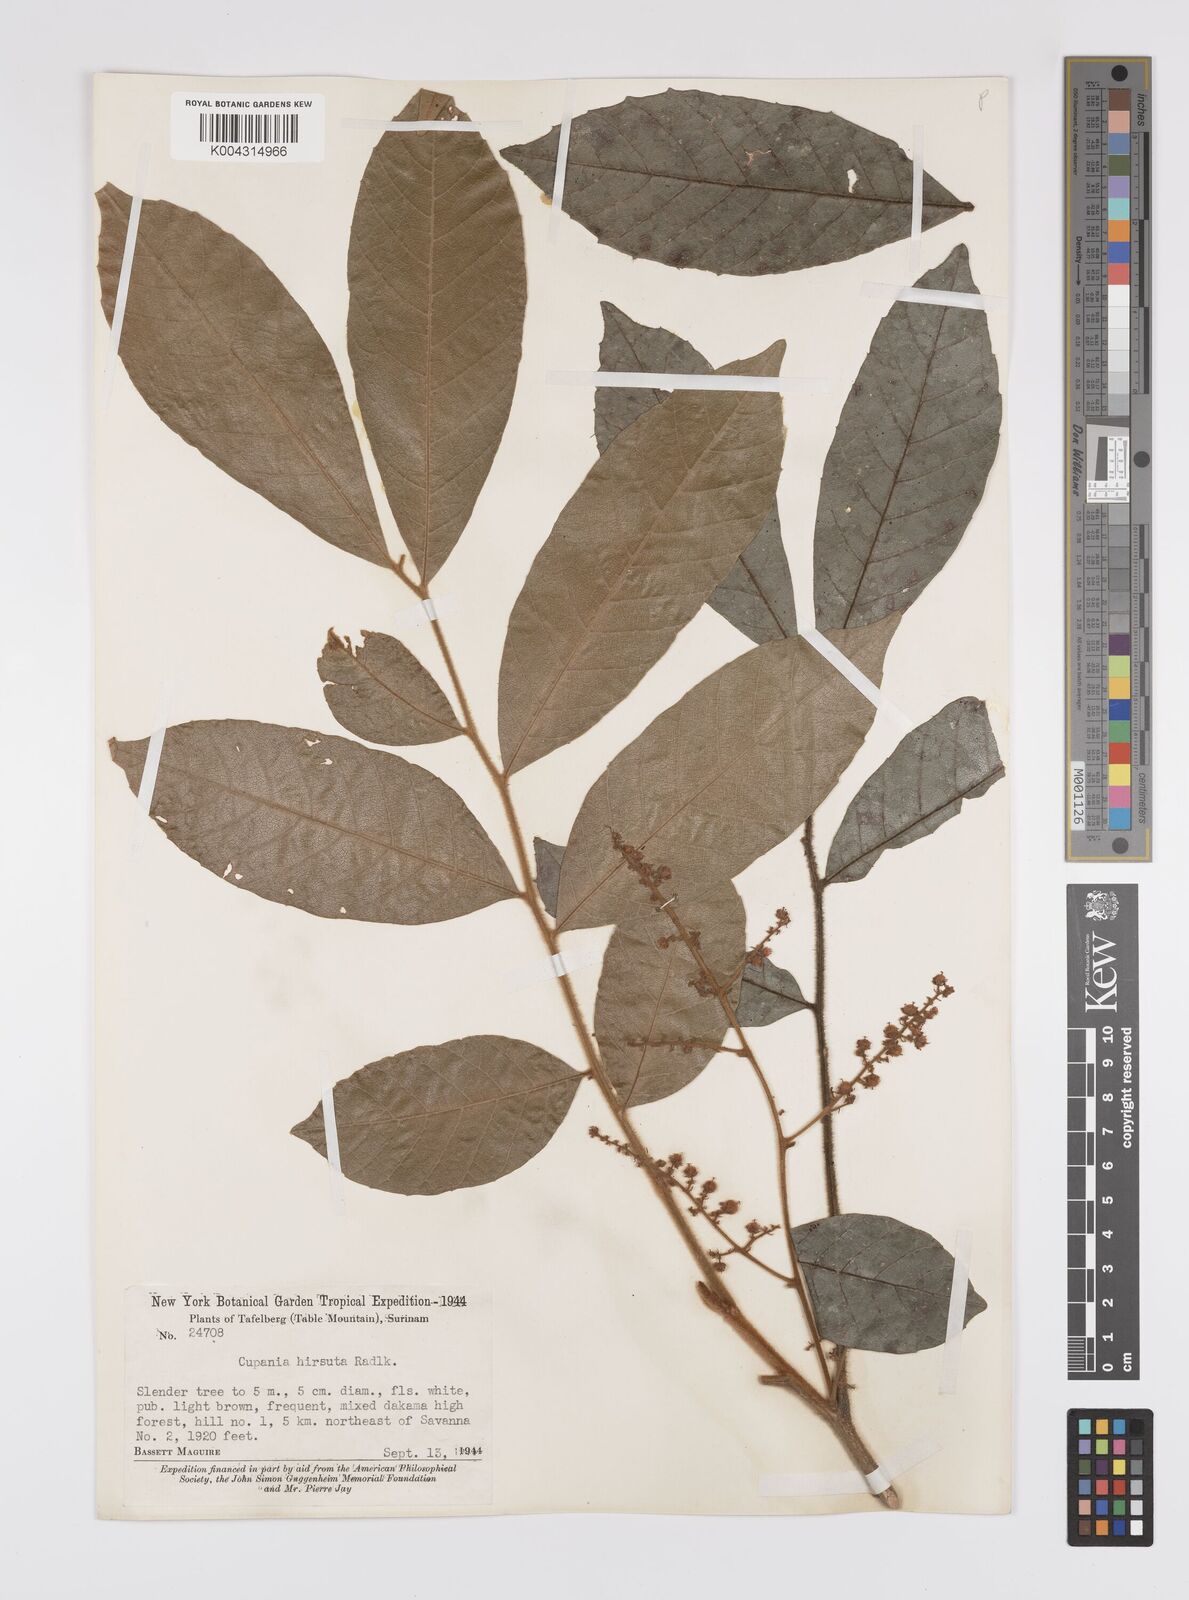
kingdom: Plantae
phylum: Tracheophyta
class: Magnoliopsida
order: Sapindales
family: Sapindaceae
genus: Cupania
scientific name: Cupania hirsuta
